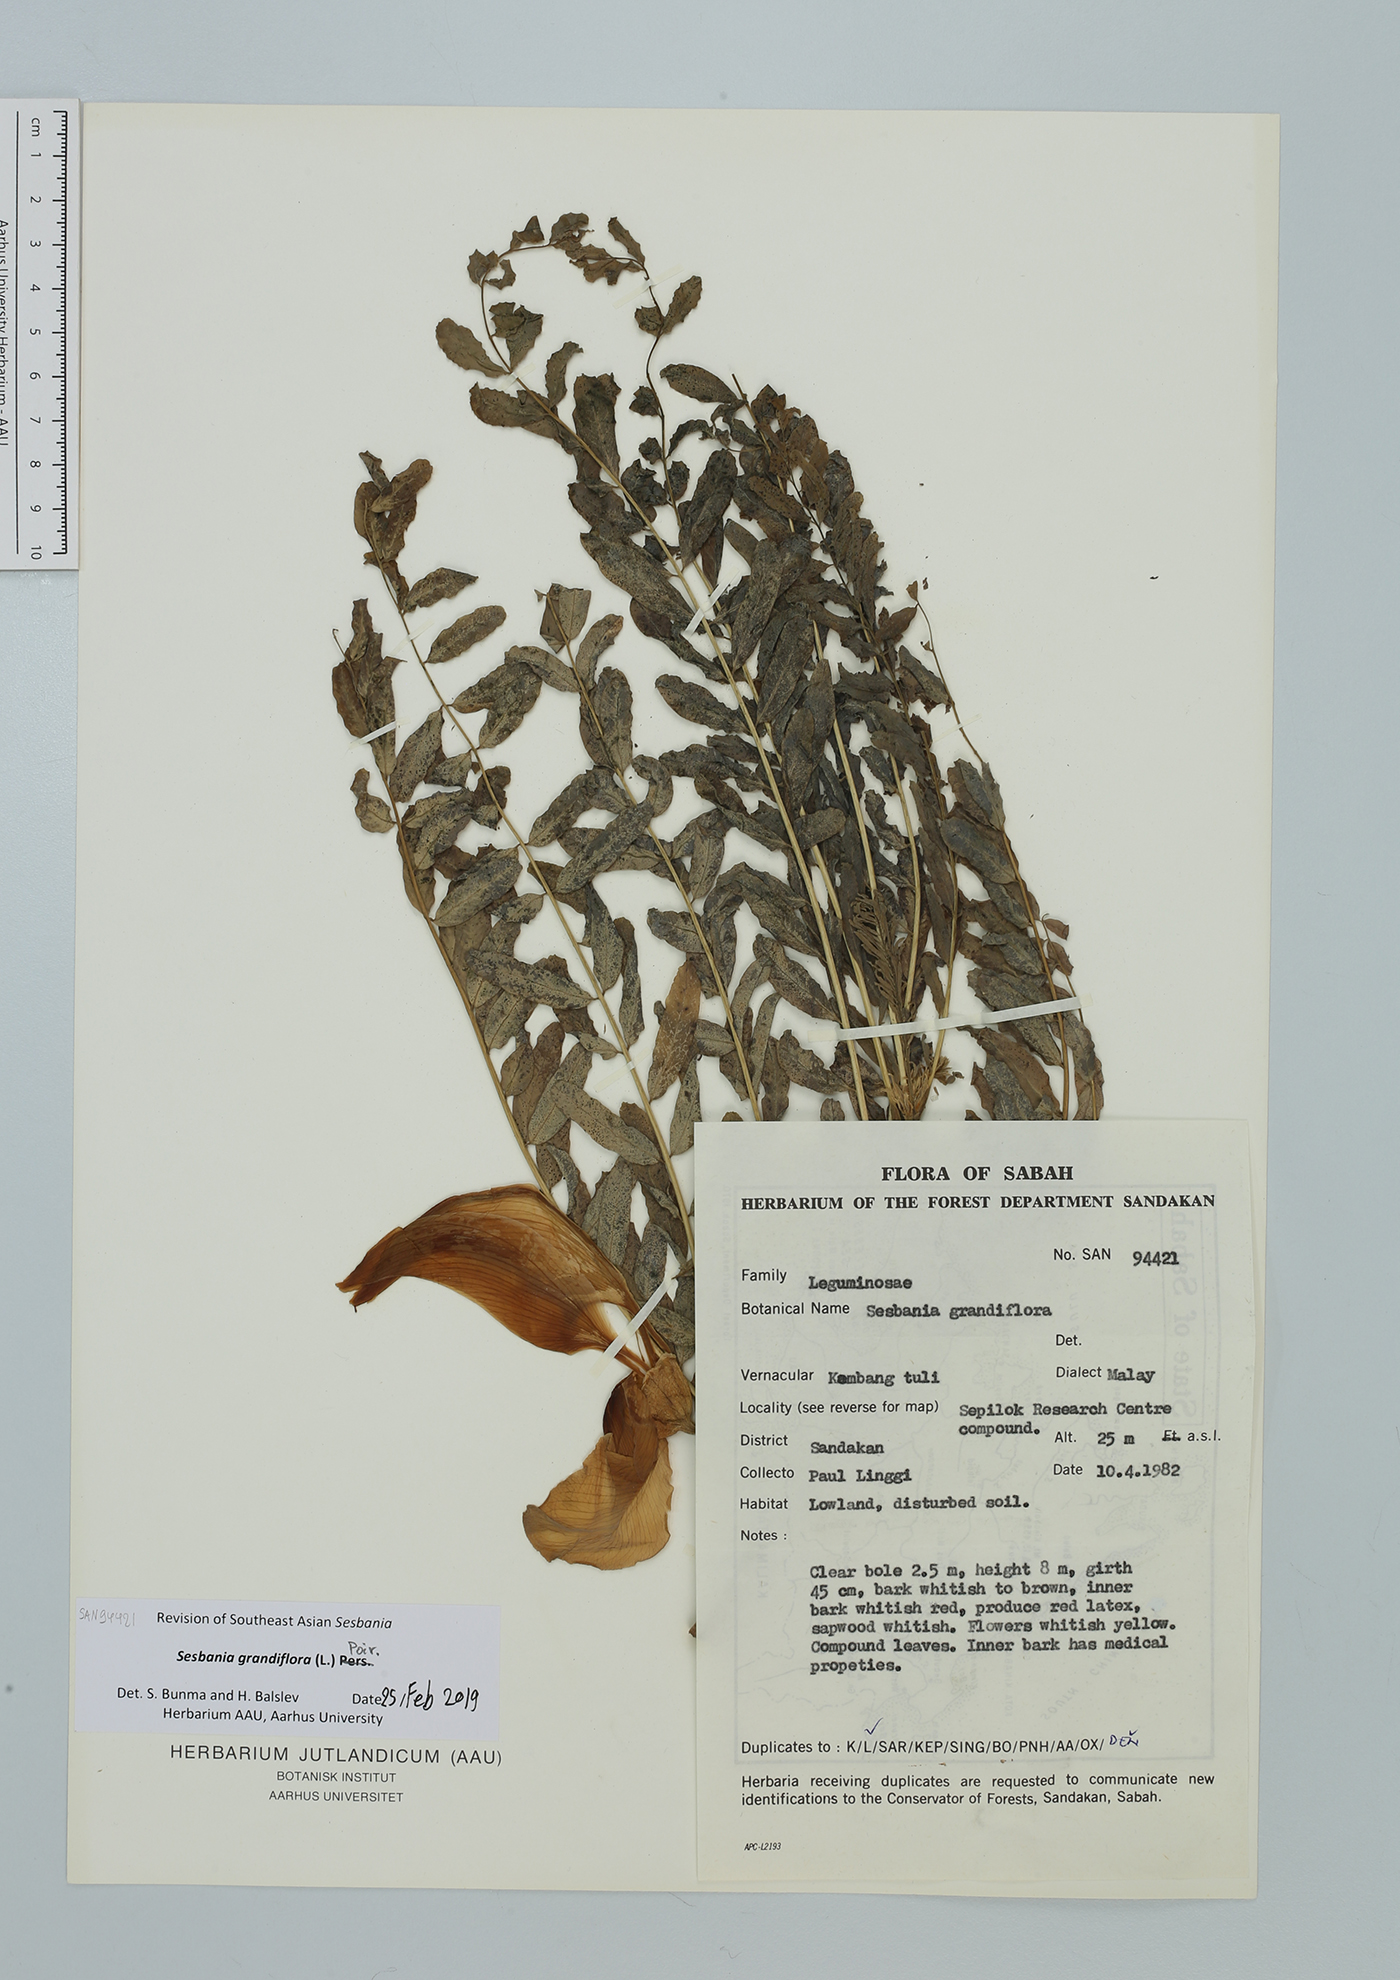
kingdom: Plantae
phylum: Tracheophyta
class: Magnoliopsida
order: Fabales
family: Fabaceae
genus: Sesbania
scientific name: Sesbania grandiflora
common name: Vegetable-hummingbird
